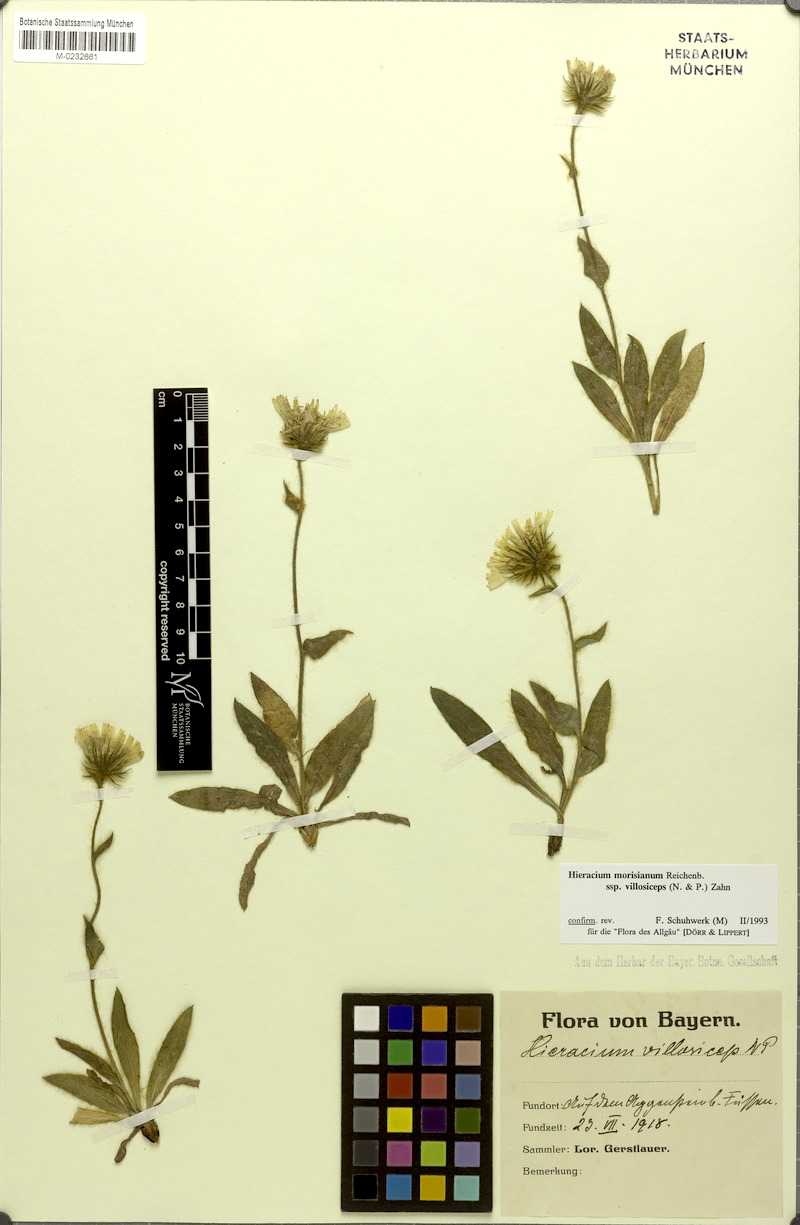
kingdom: Plantae
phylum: Tracheophyta
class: Magnoliopsida
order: Asterales
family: Asteraceae
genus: Hieracium
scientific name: Hieracium pilosum
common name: Fimbriate-pitted hawkweed
